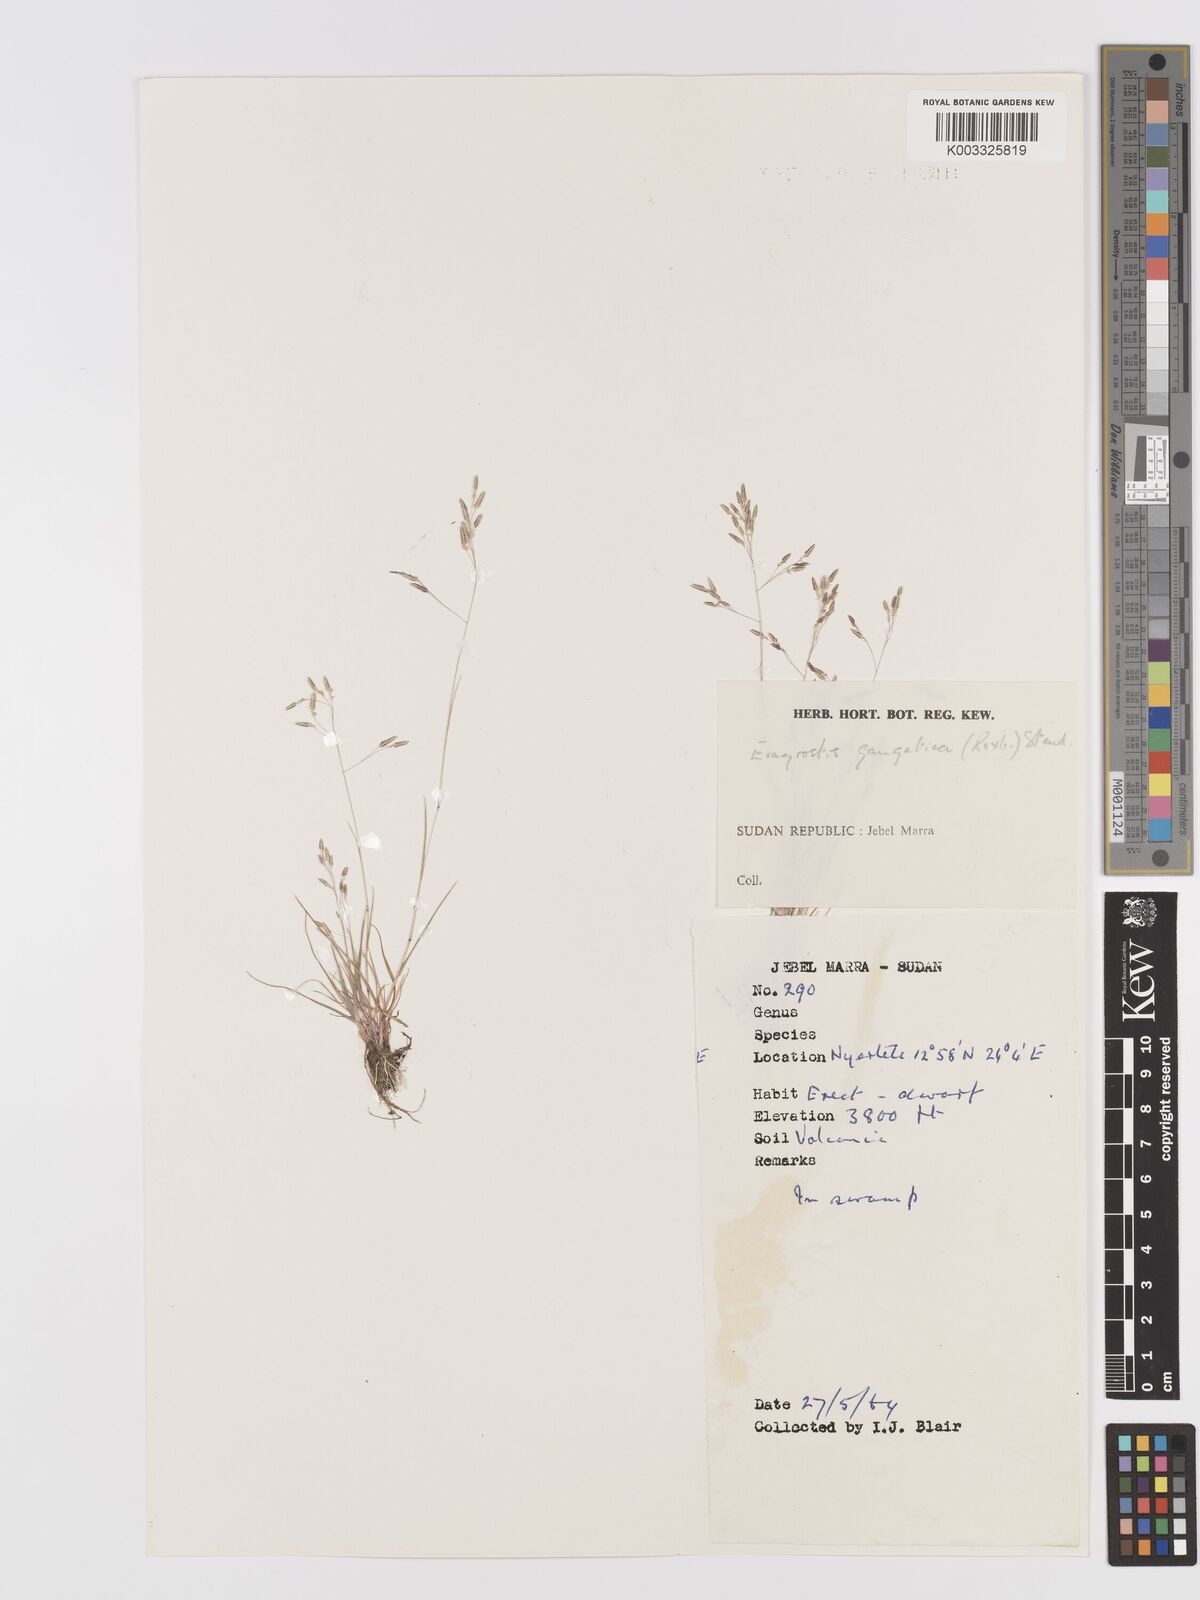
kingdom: Plantae
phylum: Tracheophyta
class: Liliopsida
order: Poales
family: Poaceae
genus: Eragrostis
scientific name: Eragrostis gangetica
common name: Slimflower lovegrass
